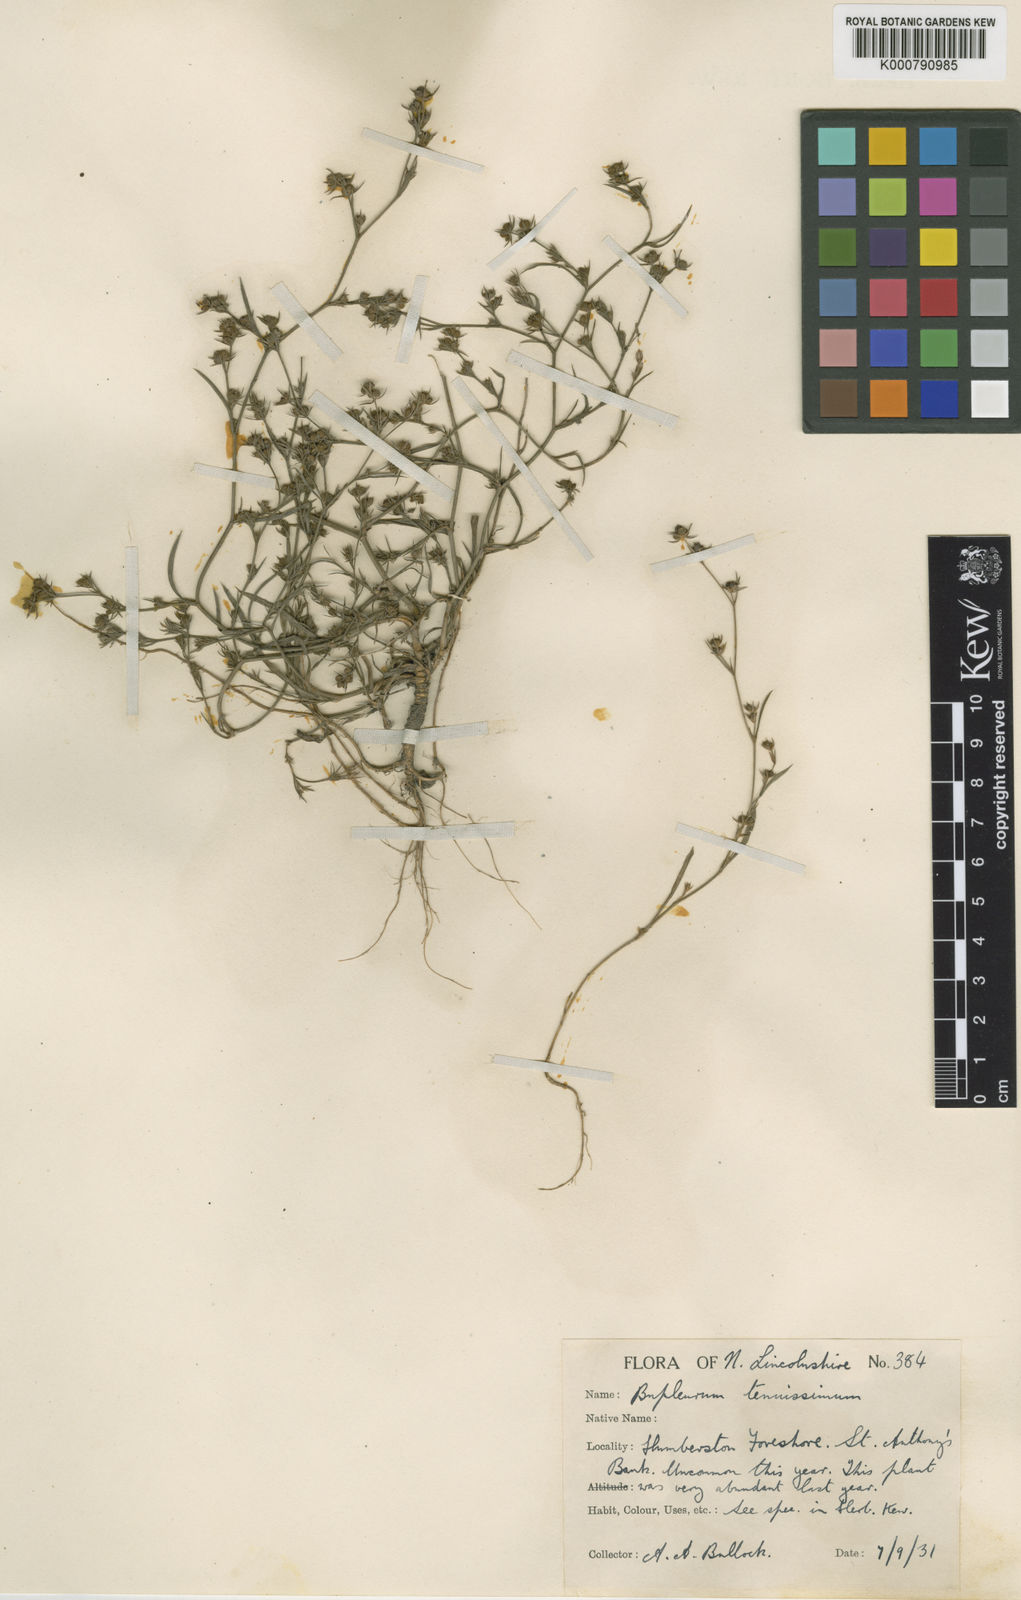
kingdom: Plantae
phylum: Tracheophyta
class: Magnoliopsida
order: Apiales
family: Apiaceae
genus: Bupleurum
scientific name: Bupleurum tenuissimum
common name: Slender hare's-ear
